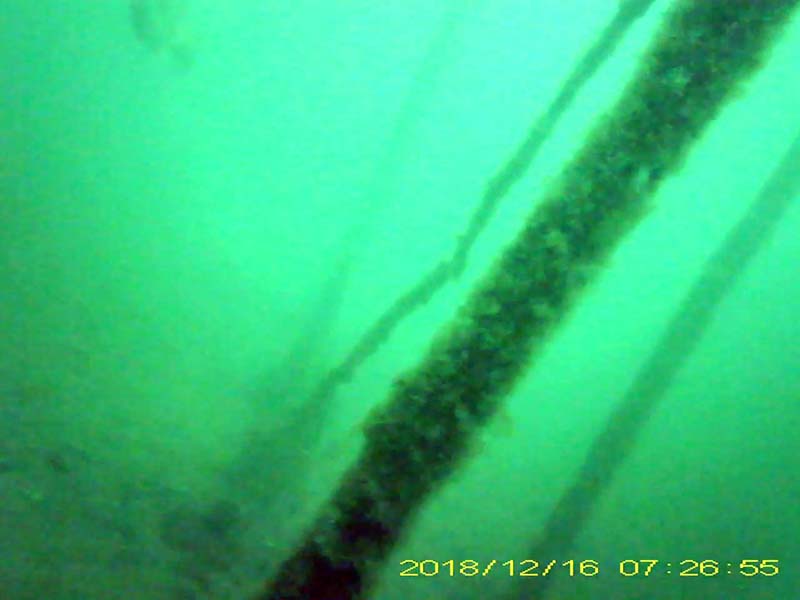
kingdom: Animalia
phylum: Chordata
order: Perciformes
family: Centrarchidae
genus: Micropterus
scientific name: Micropterus salmoides
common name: オオクチバス
